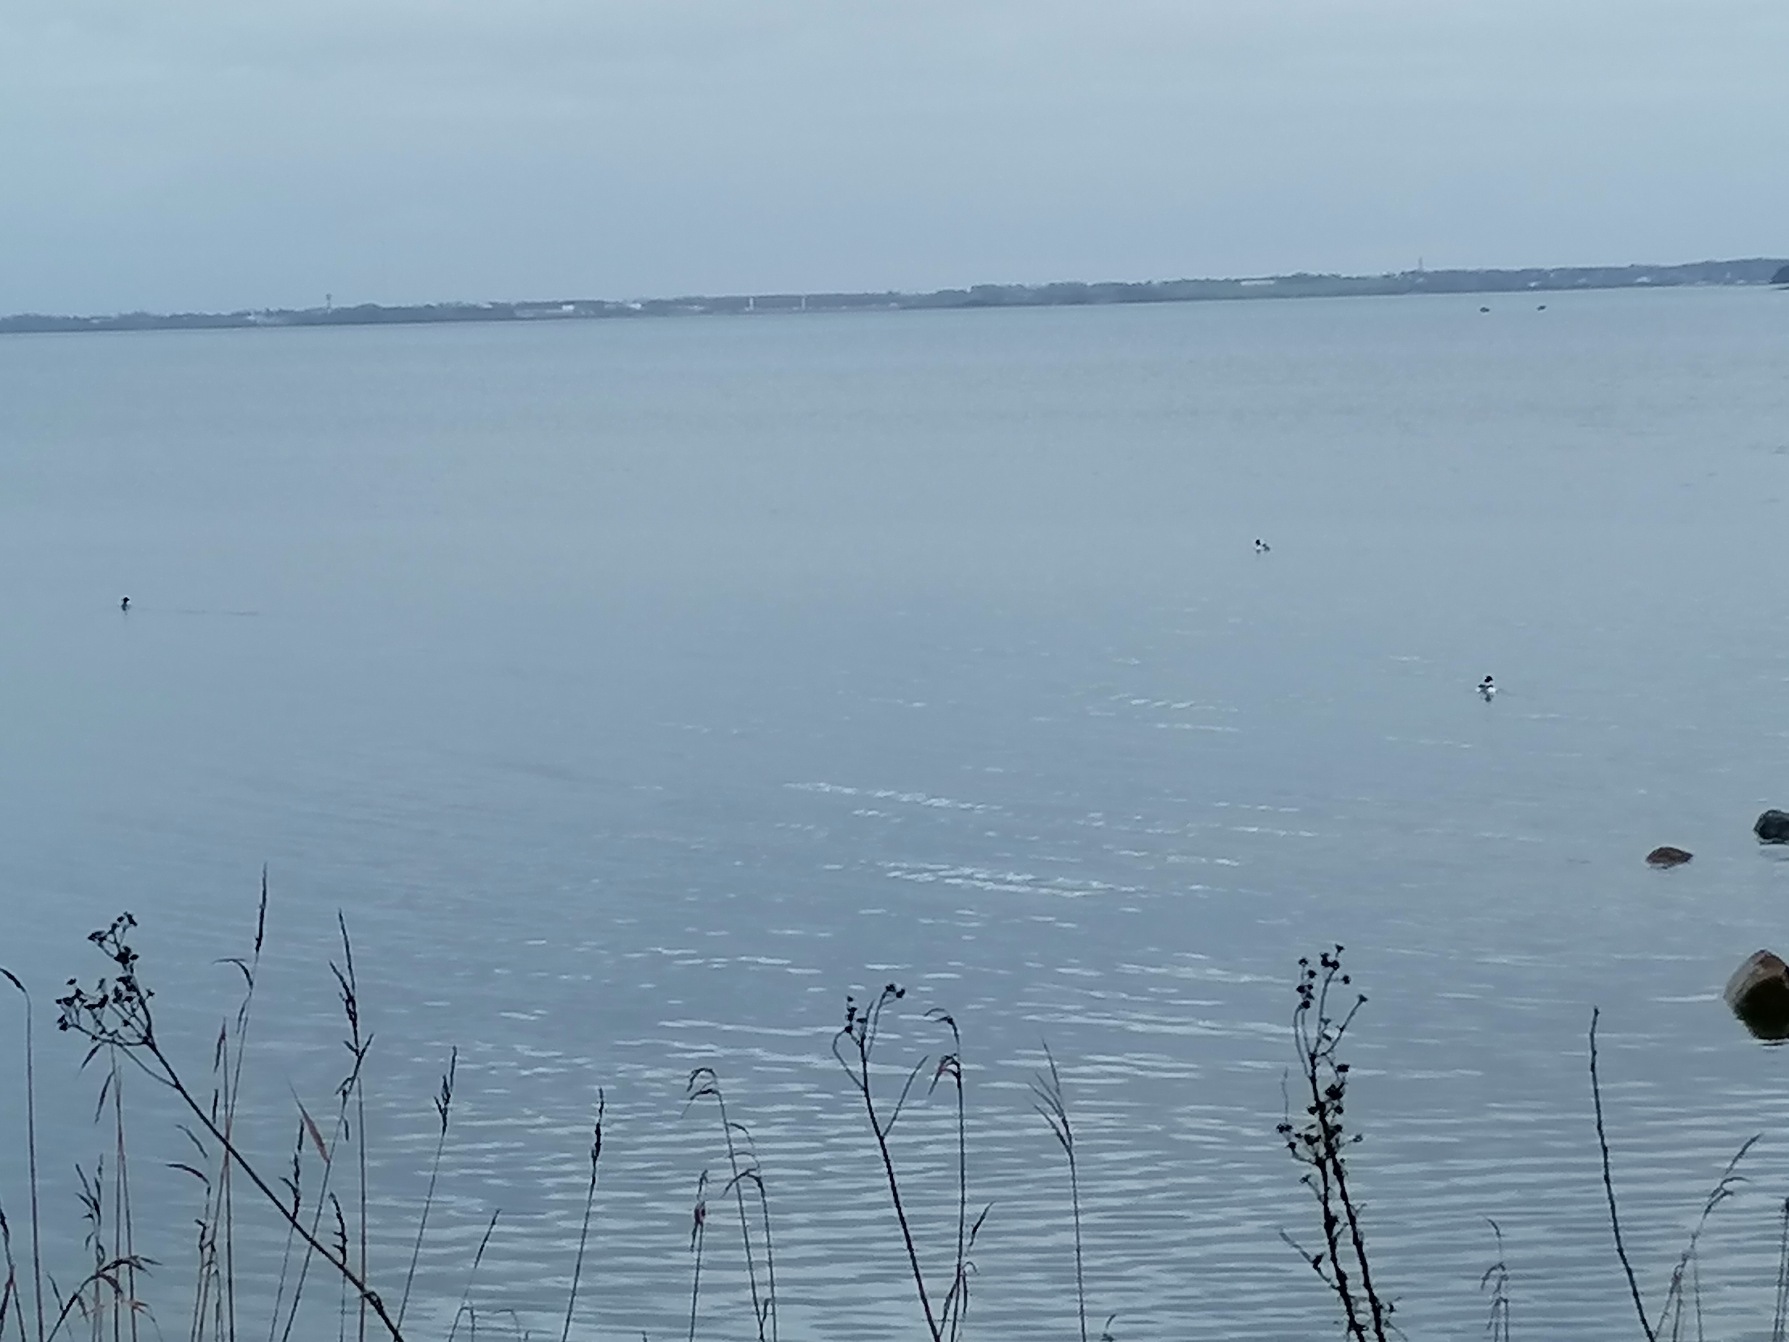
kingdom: Animalia
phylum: Chordata
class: Aves
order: Anseriformes
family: Anatidae
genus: Mergus
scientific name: Mergus merganser
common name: Stor skallesluger
